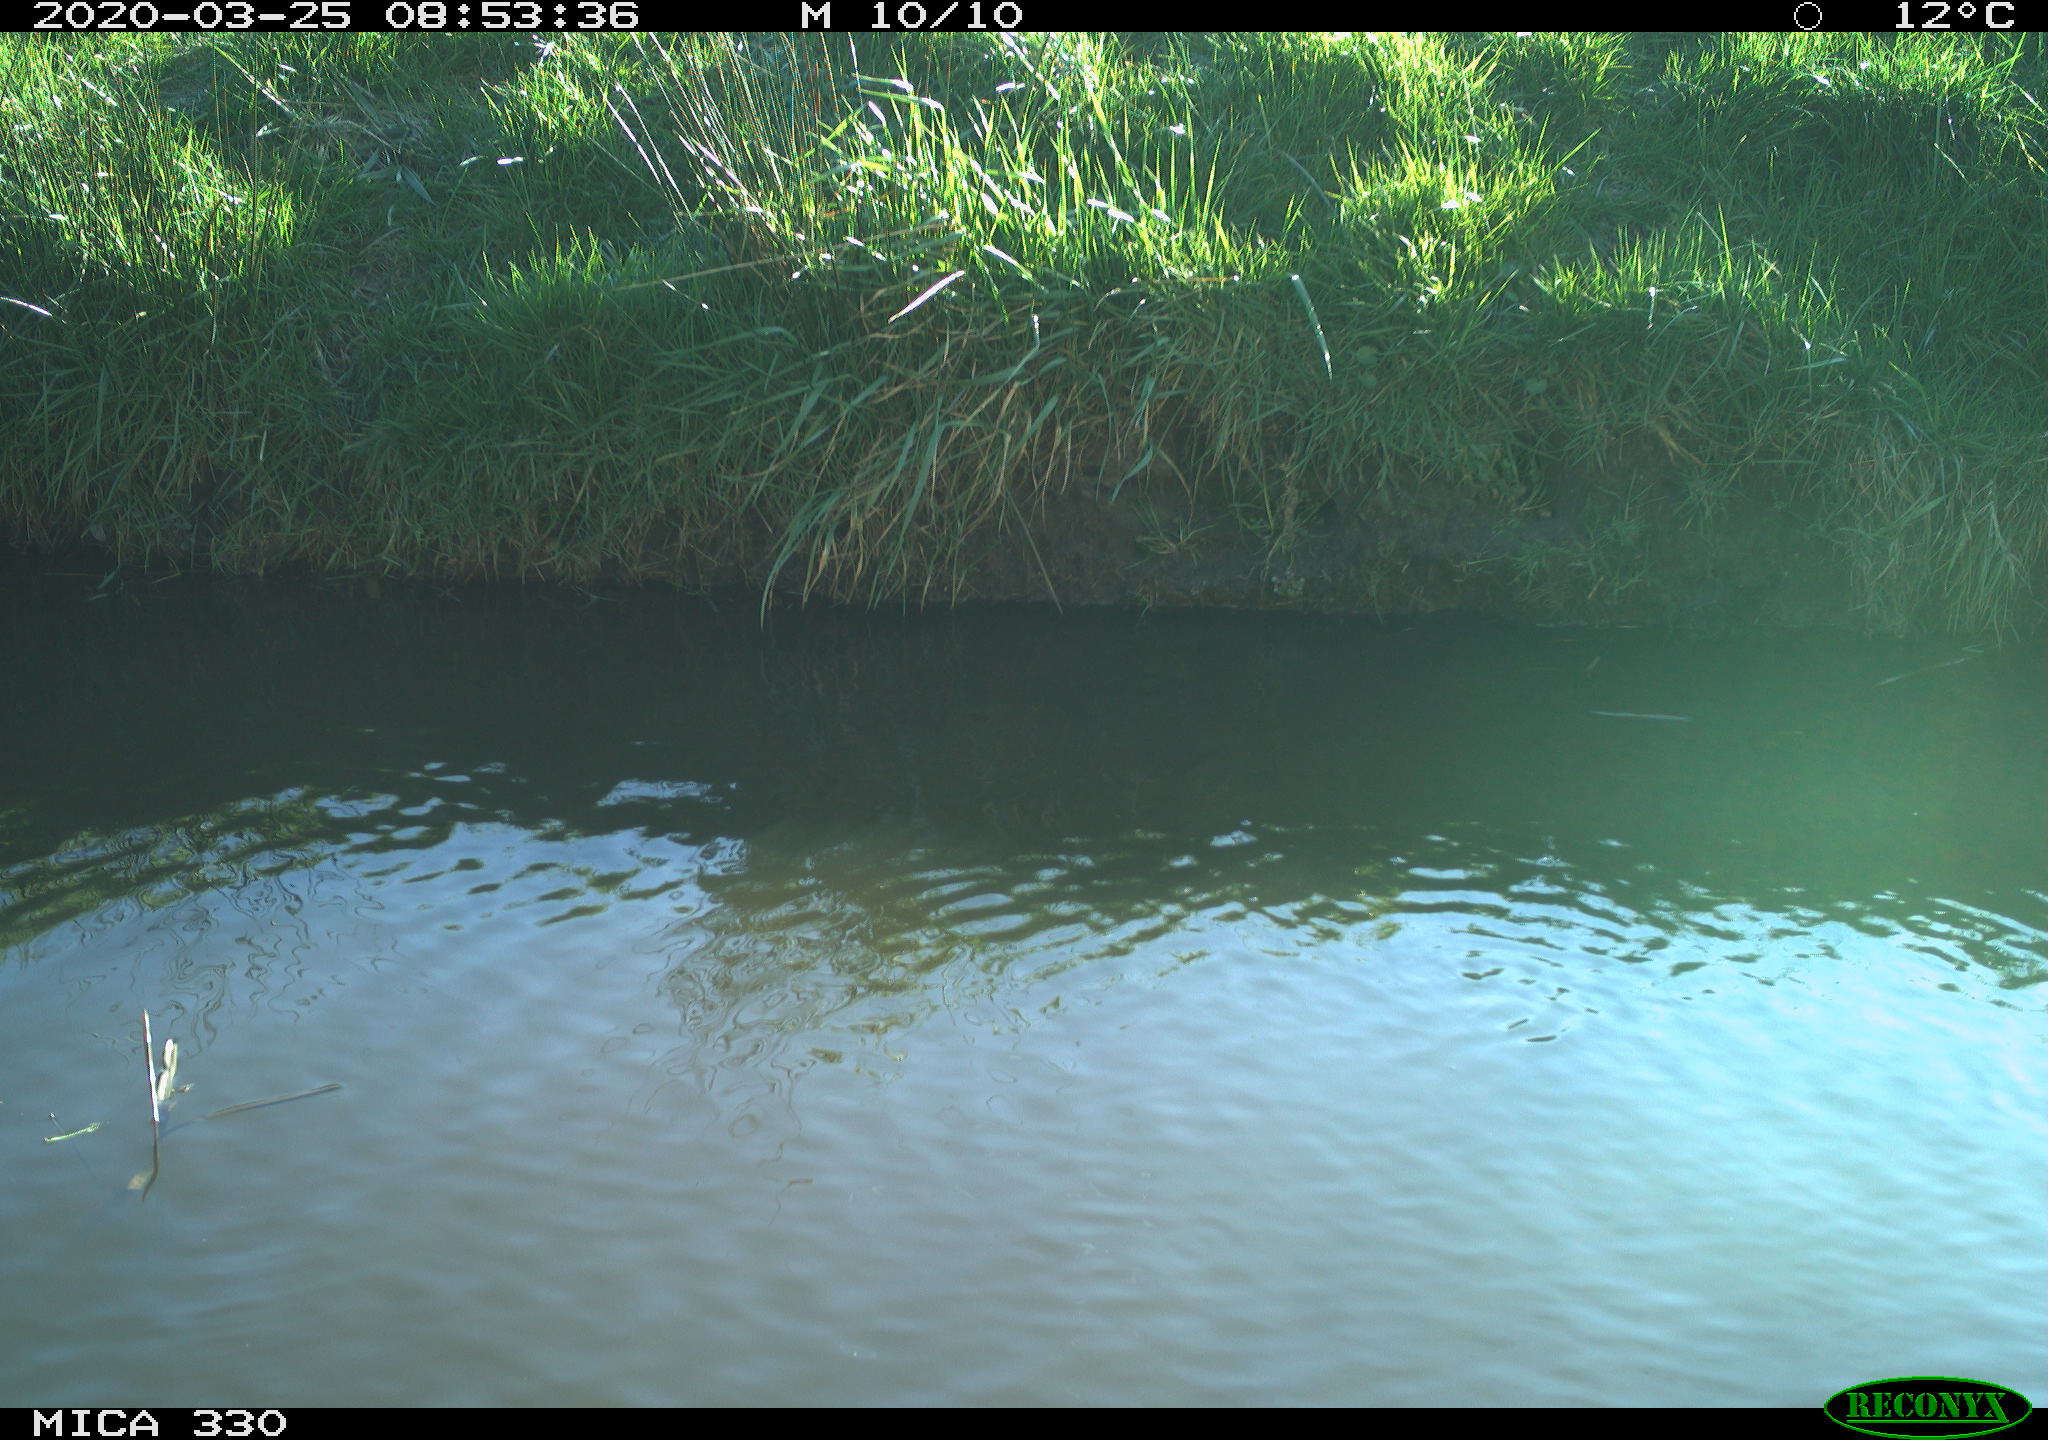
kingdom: Animalia
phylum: Chordata
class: Aves
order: Anseriformes
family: Anatidae
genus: Mareca
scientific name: Mareca strepera
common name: Gadwall
